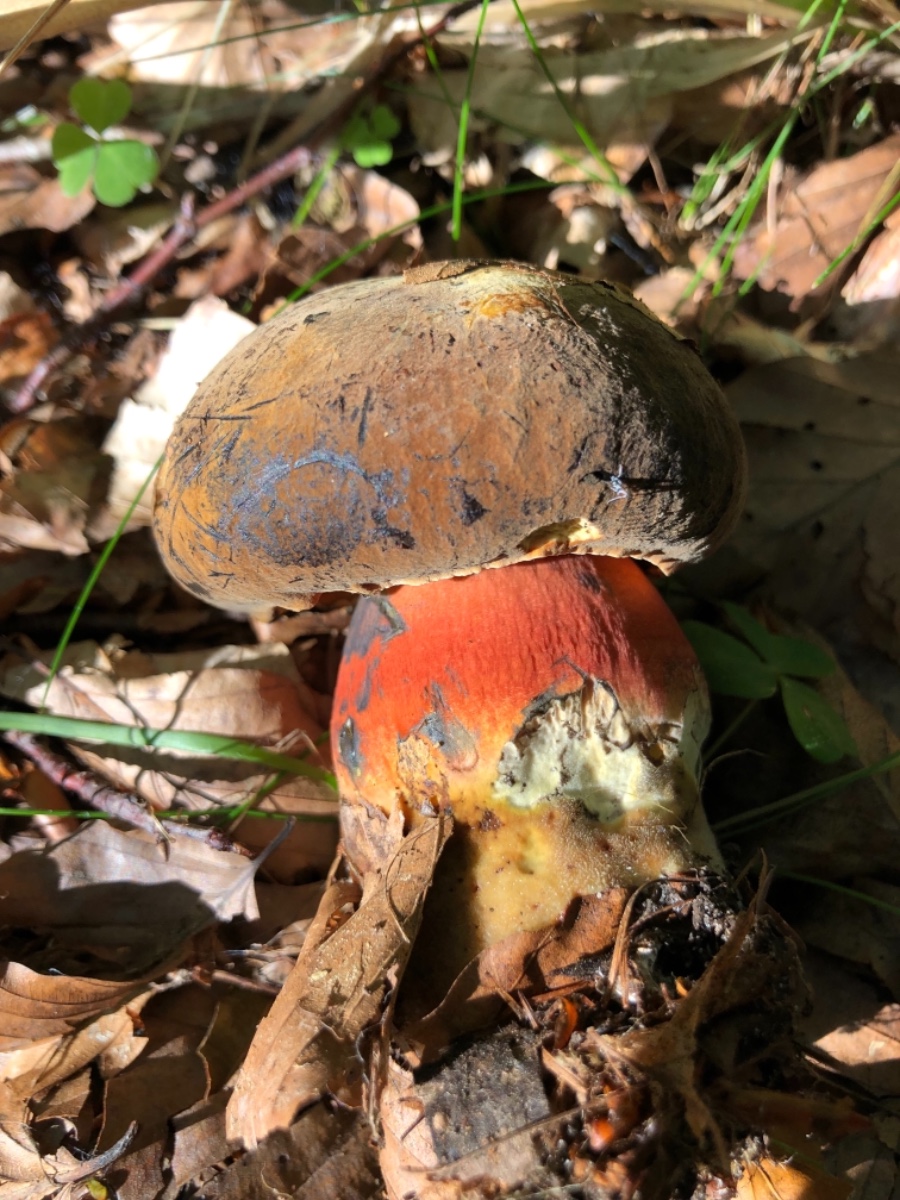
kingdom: Fungi
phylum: Basidiomycota
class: Agaricomycetes
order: Boletales
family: Boletaceae
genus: Neoboletus
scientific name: Neoboletus erythropus
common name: punktstokket indigorørhat
